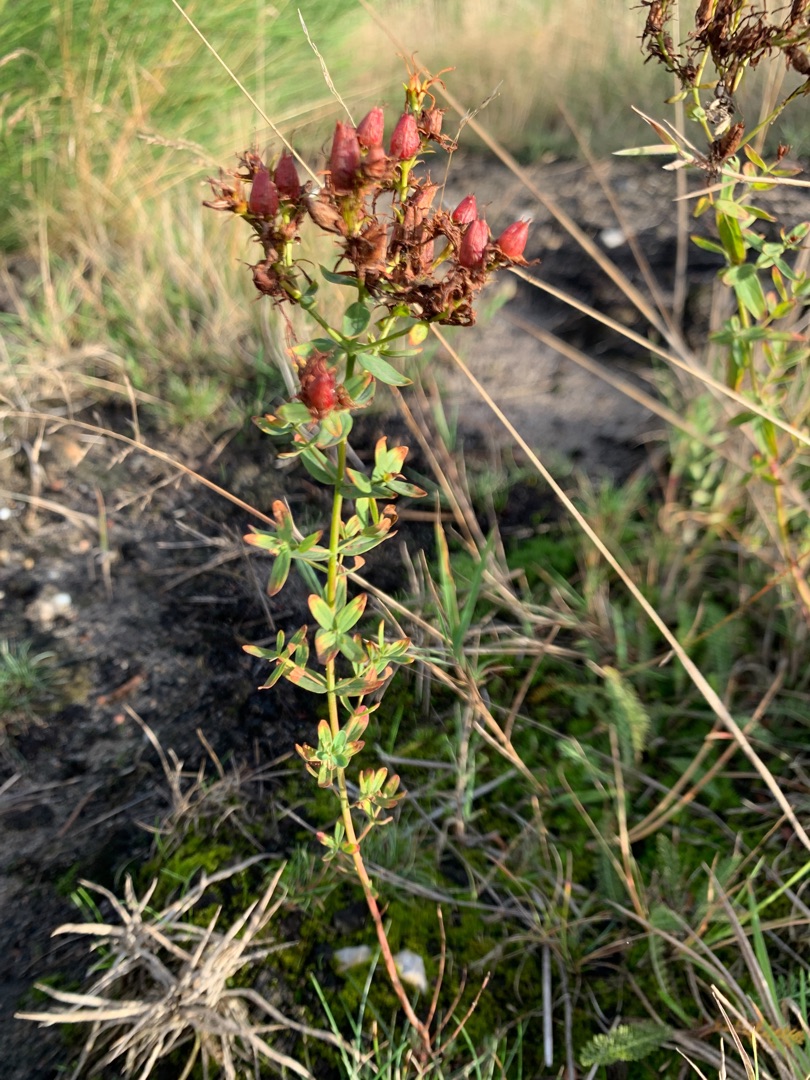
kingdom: Plantae
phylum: Tracheophyta
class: Magnoliopsida
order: Malpighiales
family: Hypericaceae
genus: Hypericum
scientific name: Hypericum perforatum
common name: Prikbladet perikon
